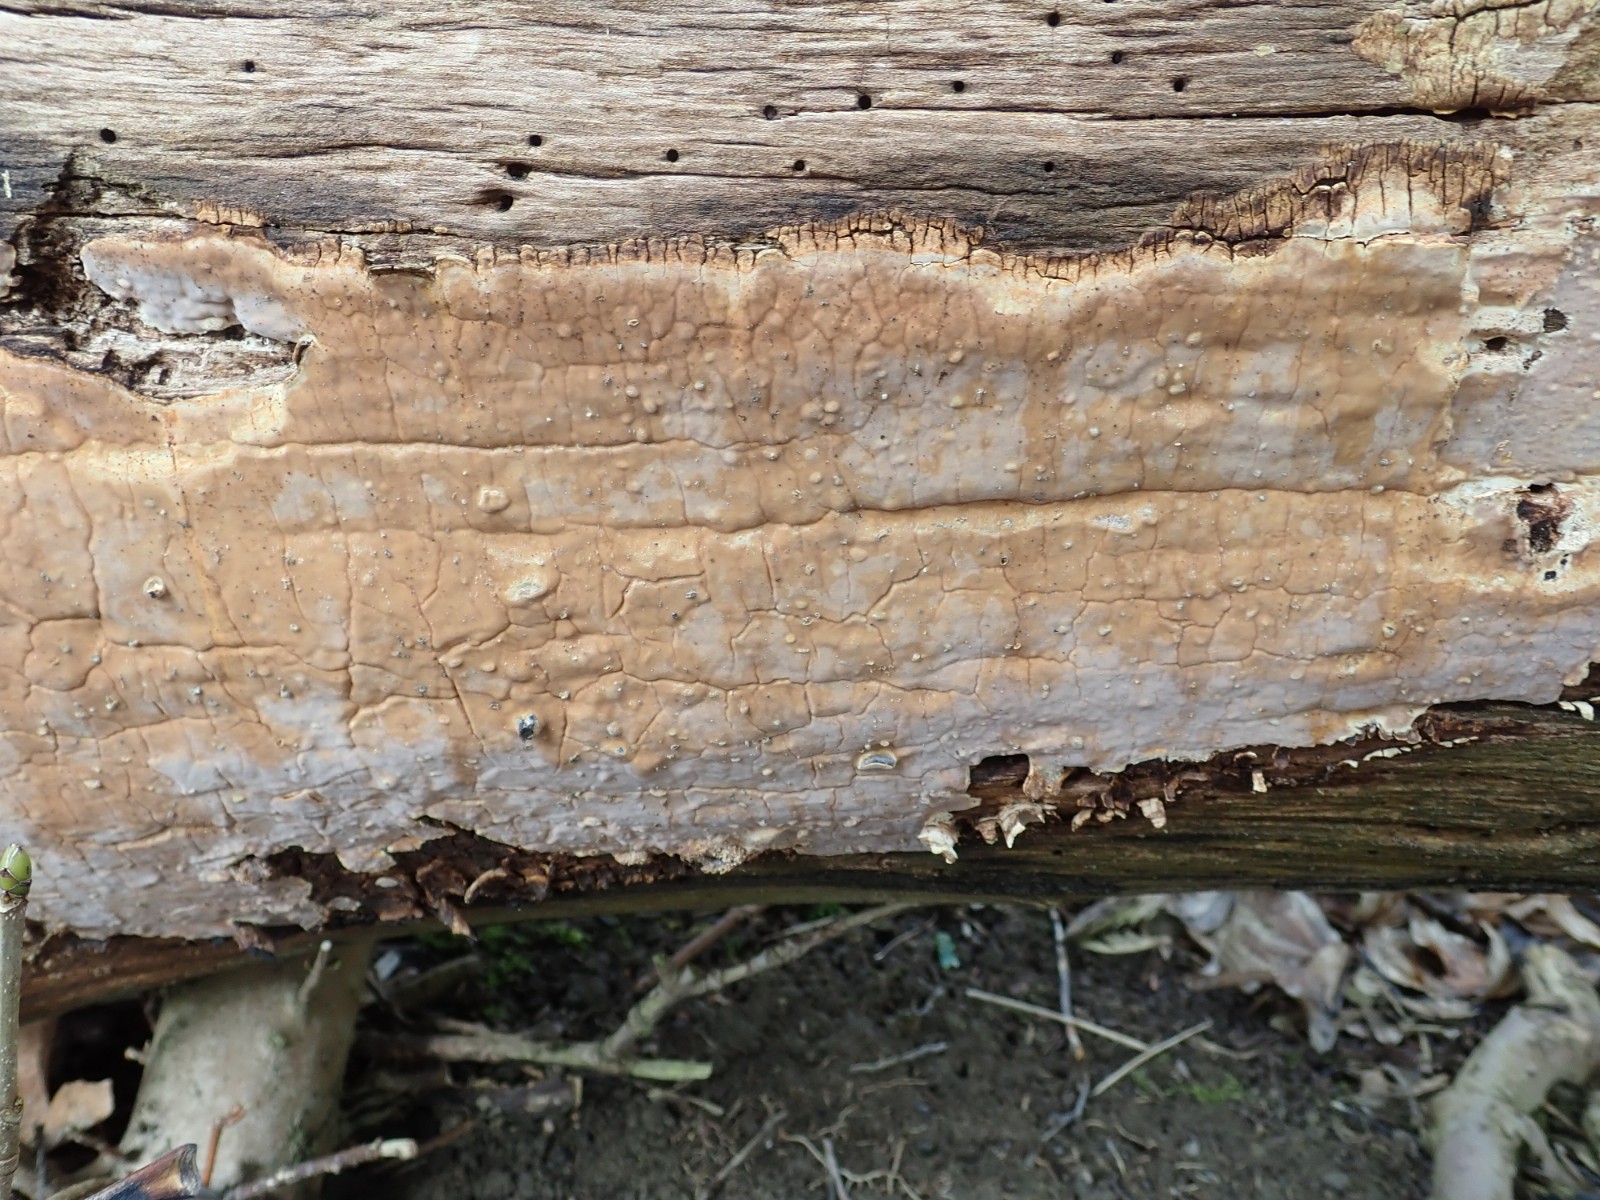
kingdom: Fungi
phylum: Basidiomycota
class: Agaricomycetes
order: Russulales
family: Peniophoraceae
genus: Scytinostroma
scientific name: Scytinostroma hemidichophyticum
